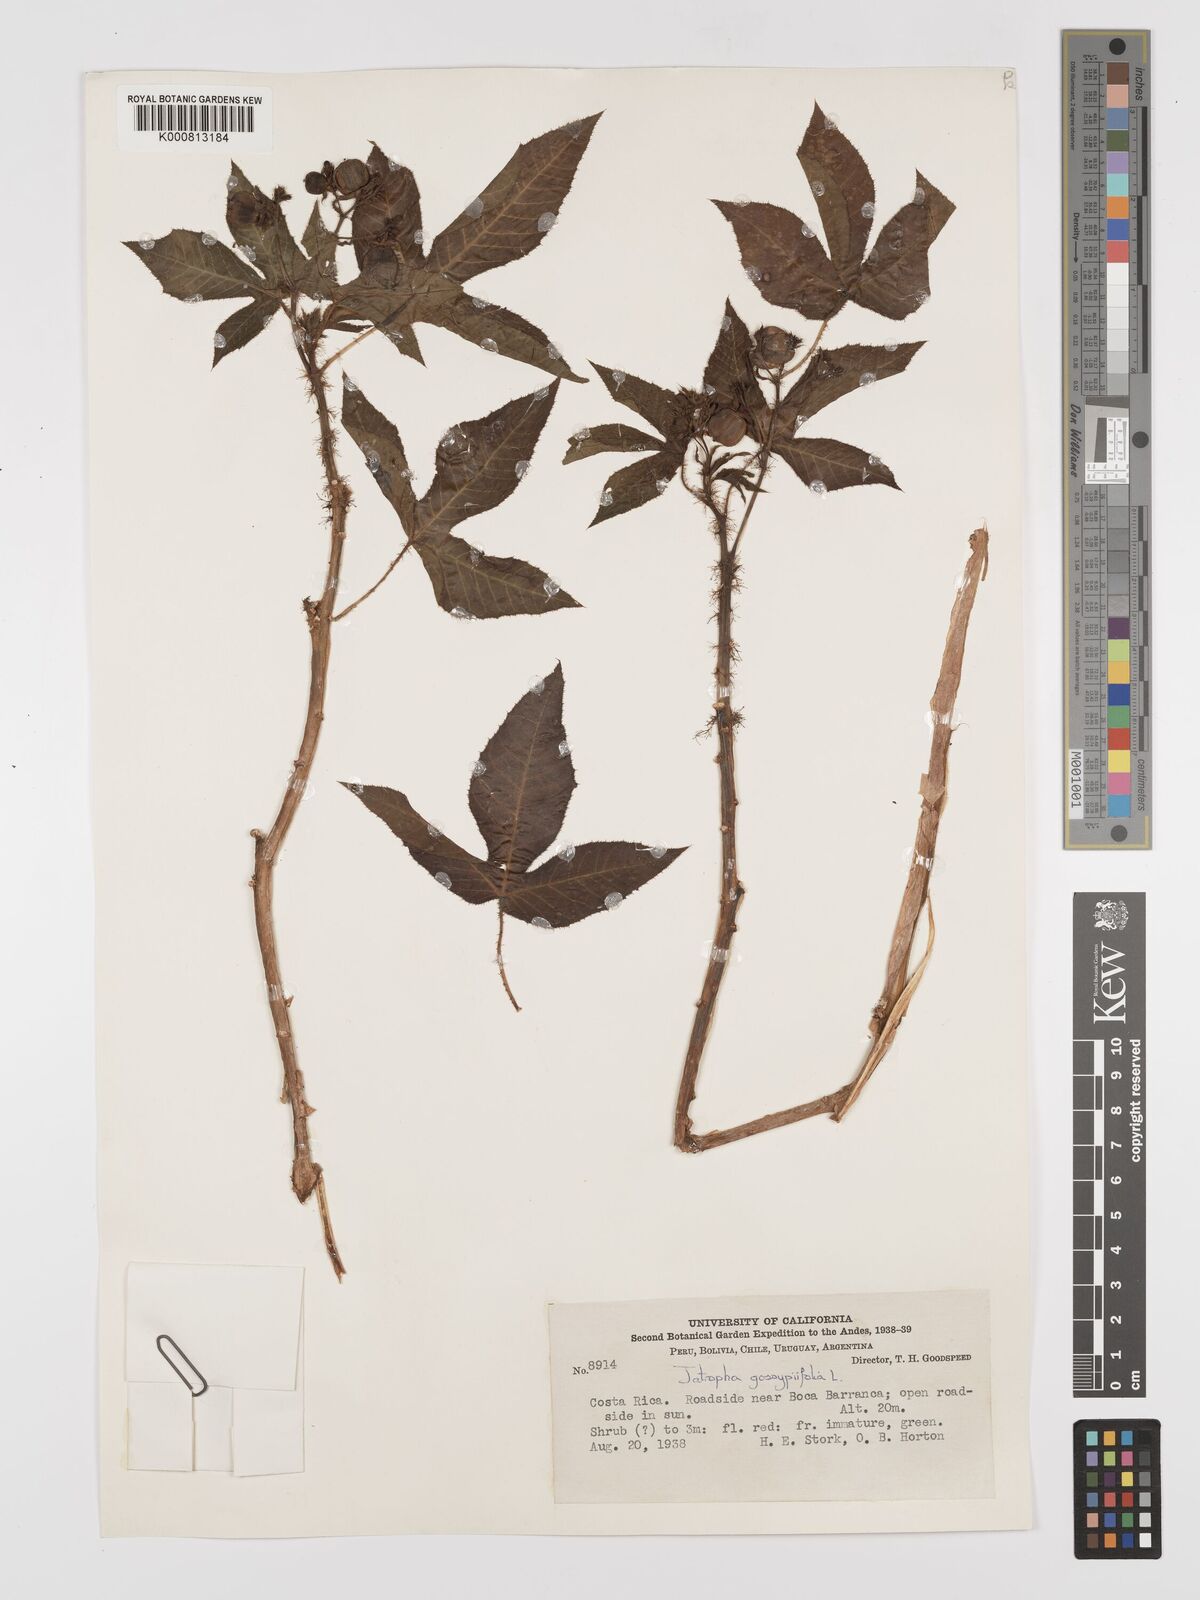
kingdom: Plantae
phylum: Tracheophyta
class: Magnoliopsida
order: Malpighiales
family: Euphorbiaceae
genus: Jatropha
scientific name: Jatropha gossypiifolia
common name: Bellyache bush
